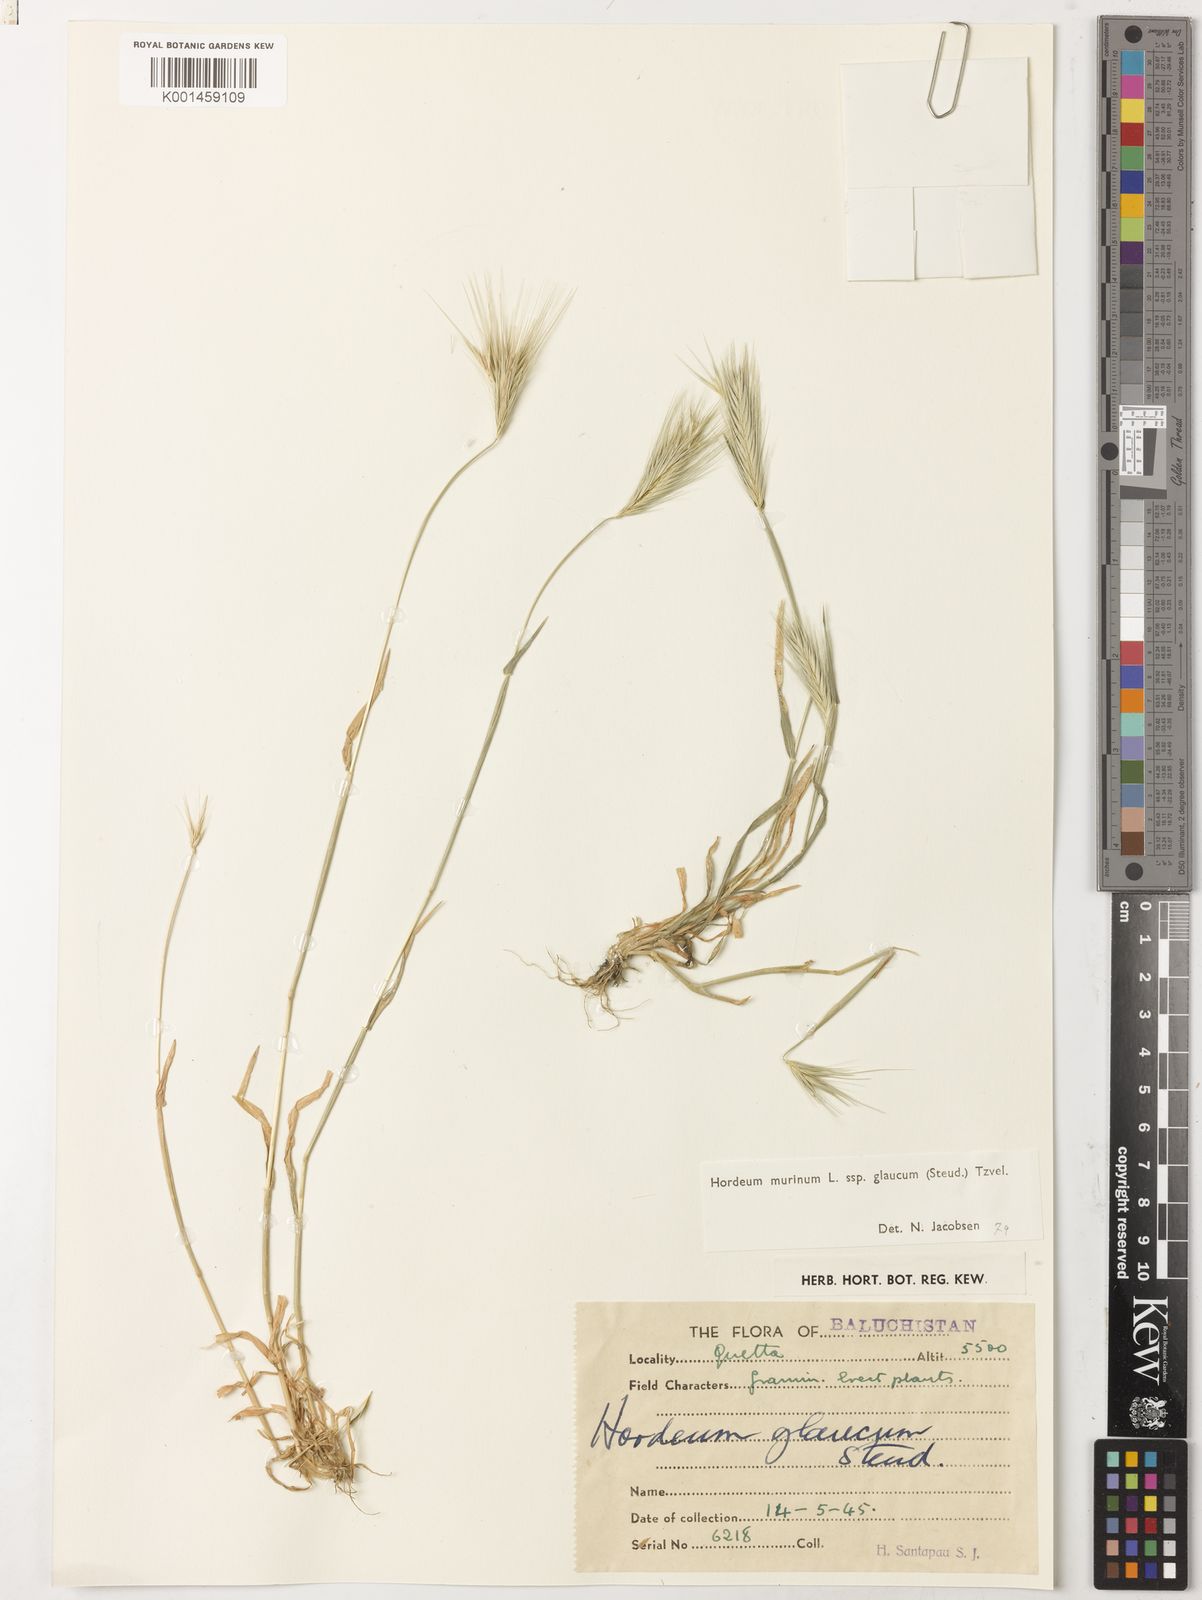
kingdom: Plantae
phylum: Tracheophyta
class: Liliopsida
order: Poales
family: Poaceae
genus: Hordeum
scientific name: Hordeum murinum
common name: Wall barley
